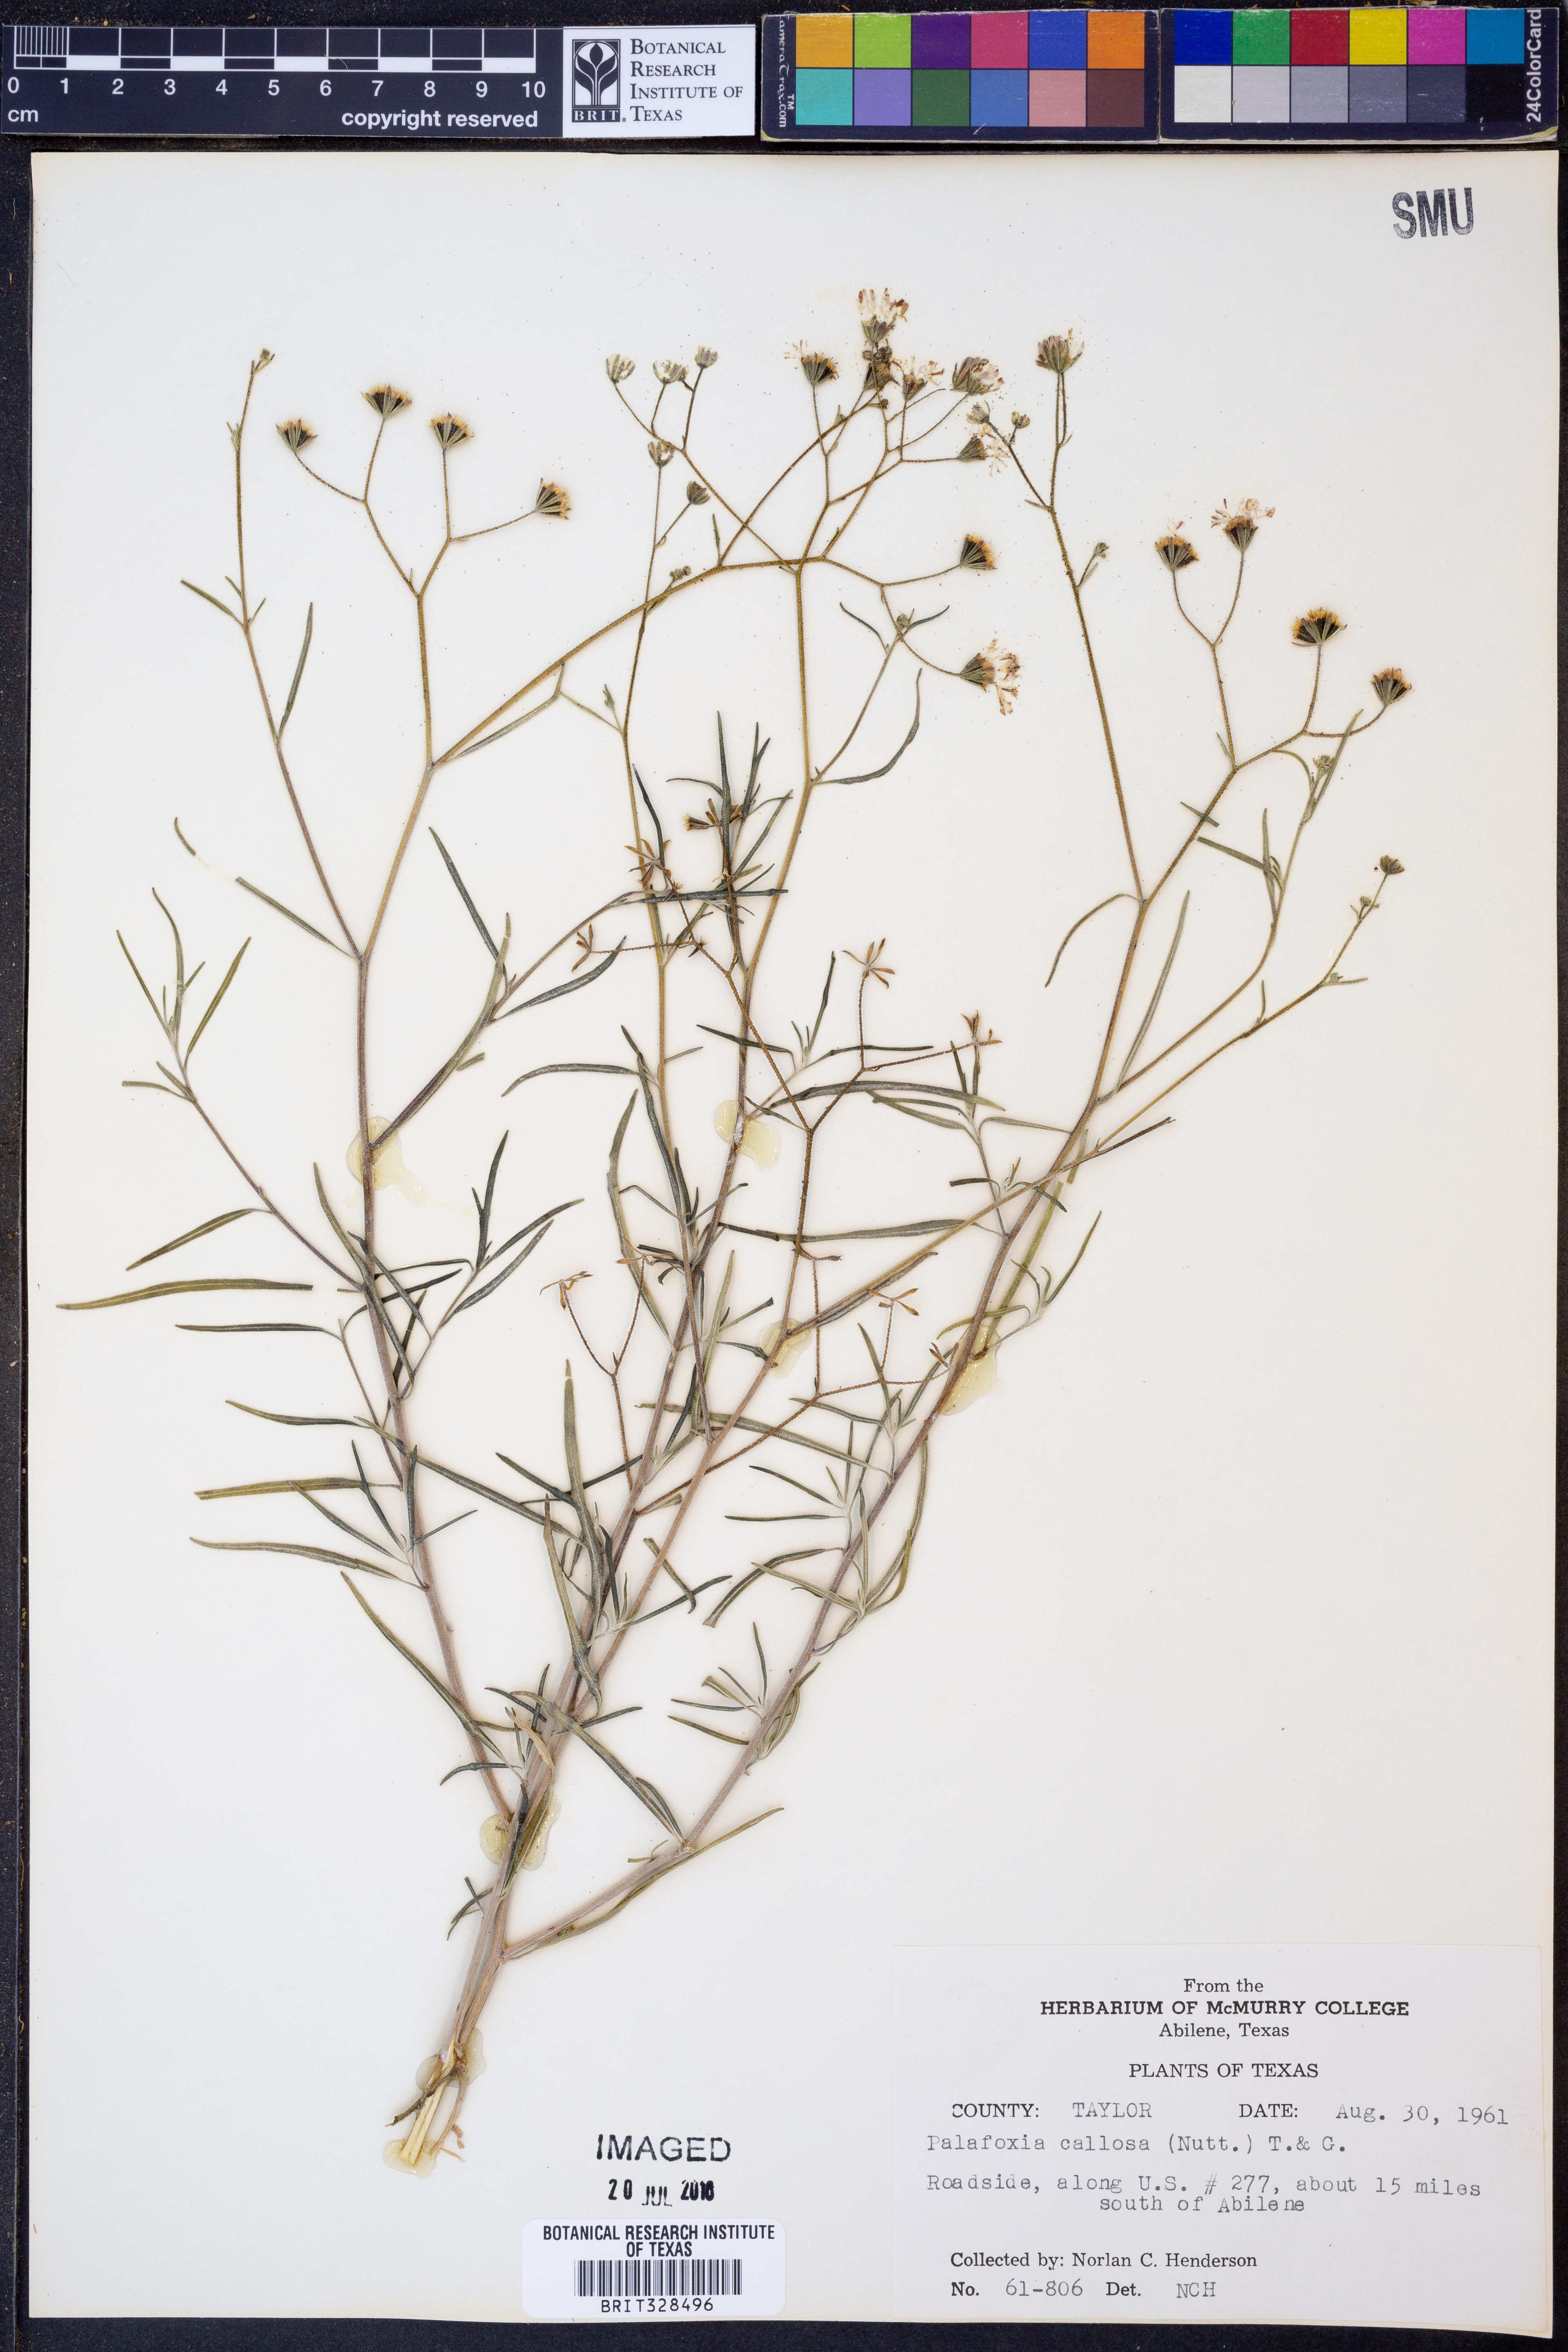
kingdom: Plantae
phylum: Tracheophyta
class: Magnoliopsida
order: Asterales
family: Asteraceae
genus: Palafoxia
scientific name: Palafoxia callosa
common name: Small palafox
